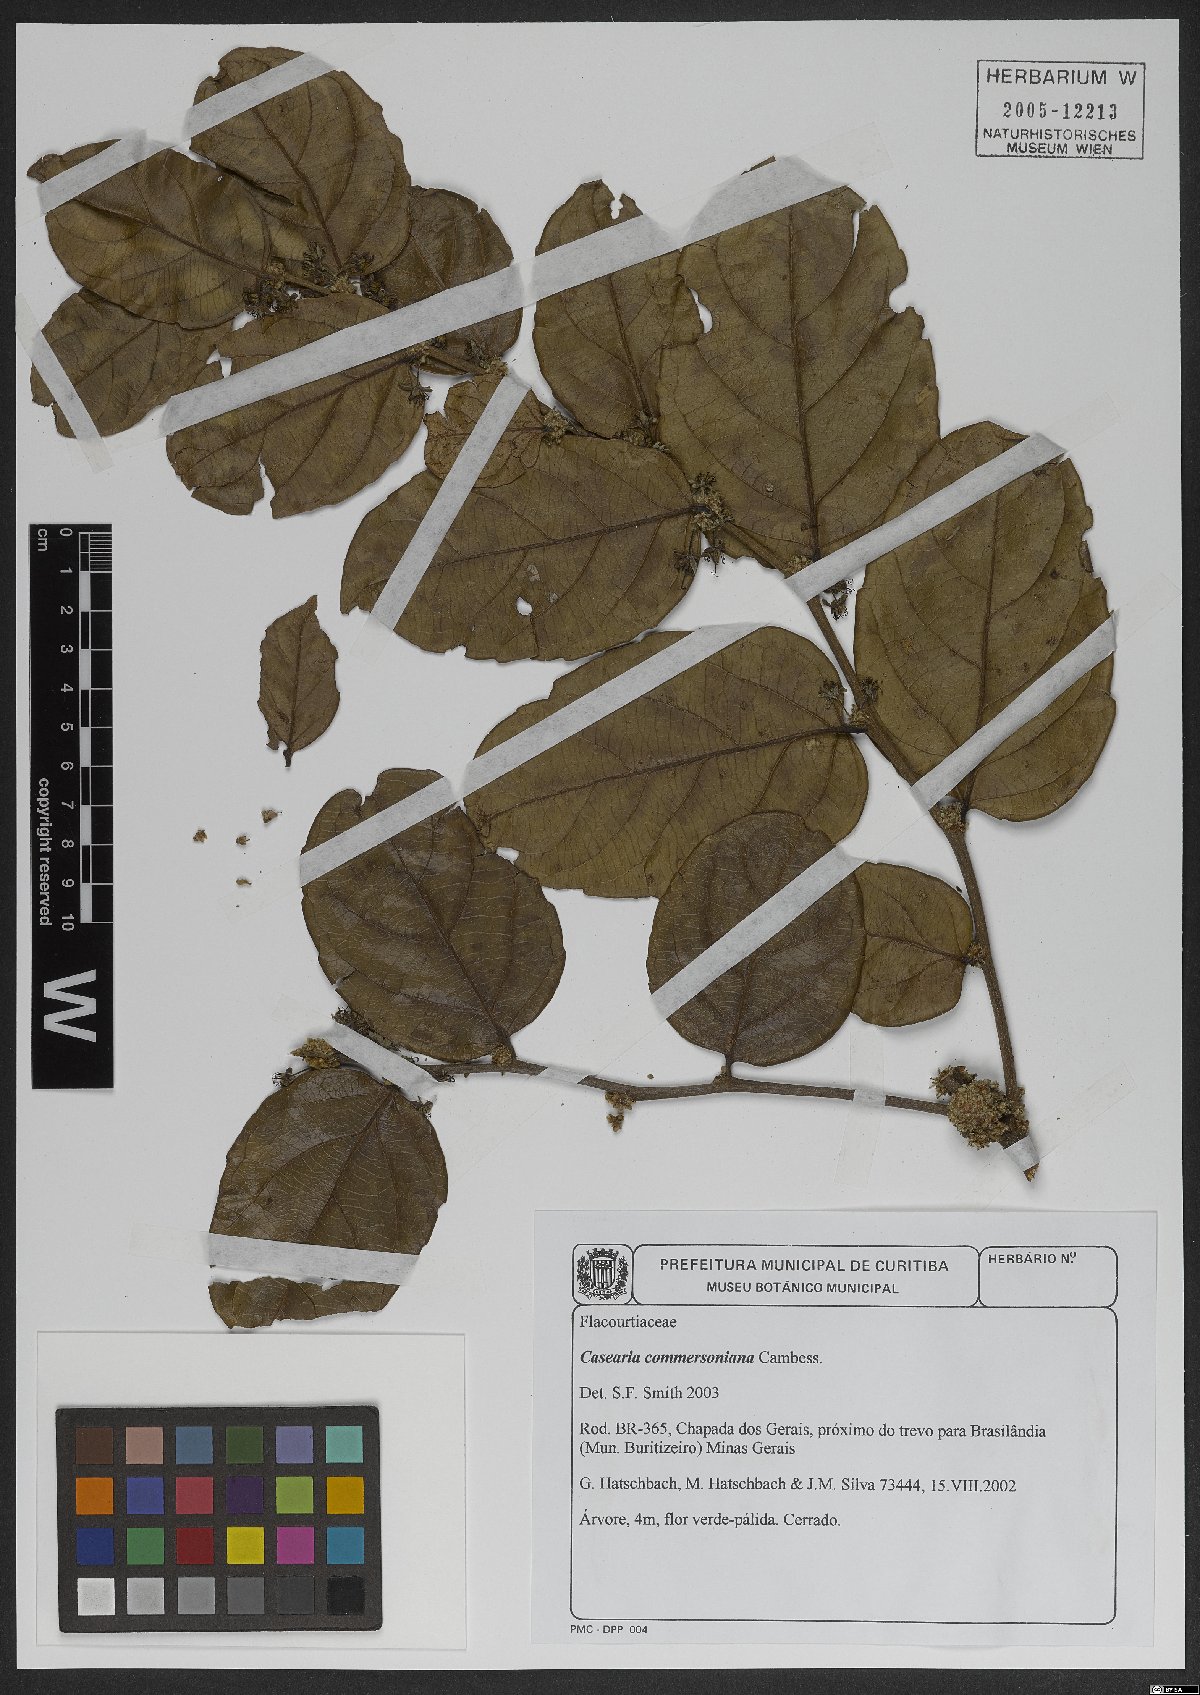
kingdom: Plantae
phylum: Tracheophyta
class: Magnoliopsida
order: Malpighiales
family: Salicaceae
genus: Piparea
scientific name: Piparea dentata
